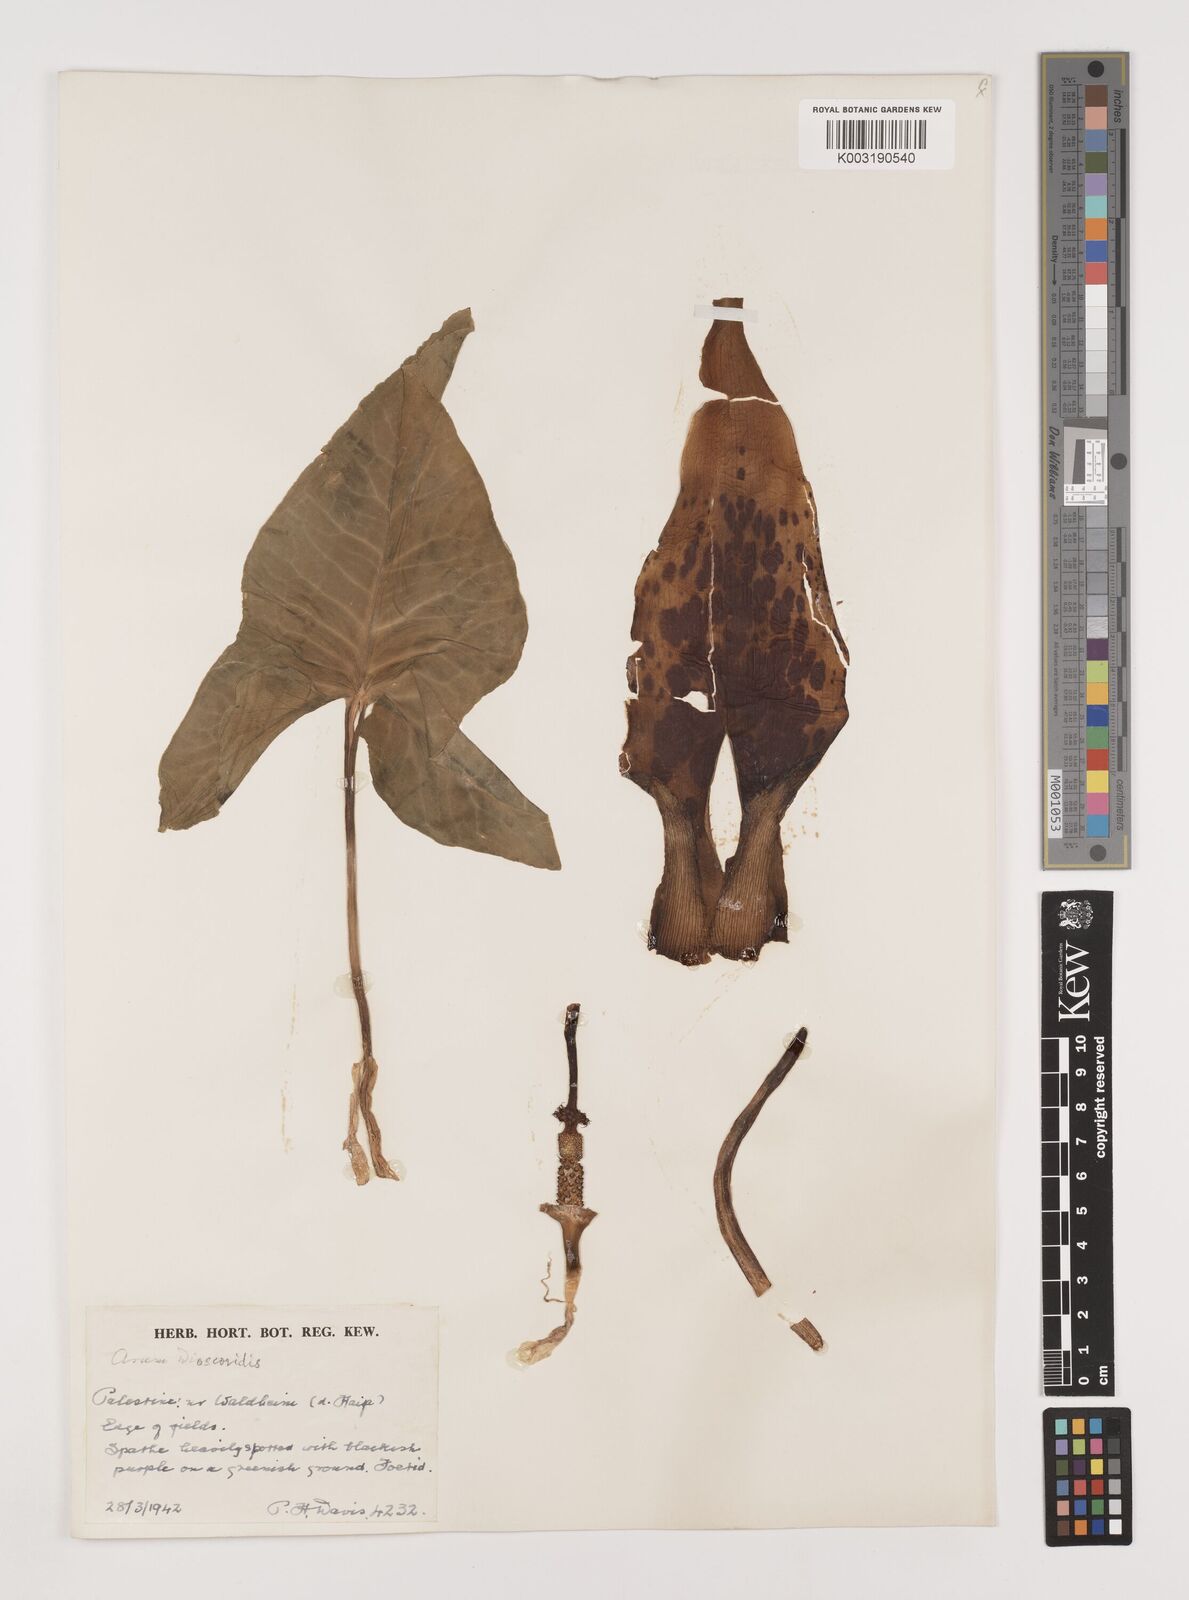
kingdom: Plantae
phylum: Tracheophyta
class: Liliopsida
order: Alismatales
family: Araceae
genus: Arum
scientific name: Arum dioscoridis
